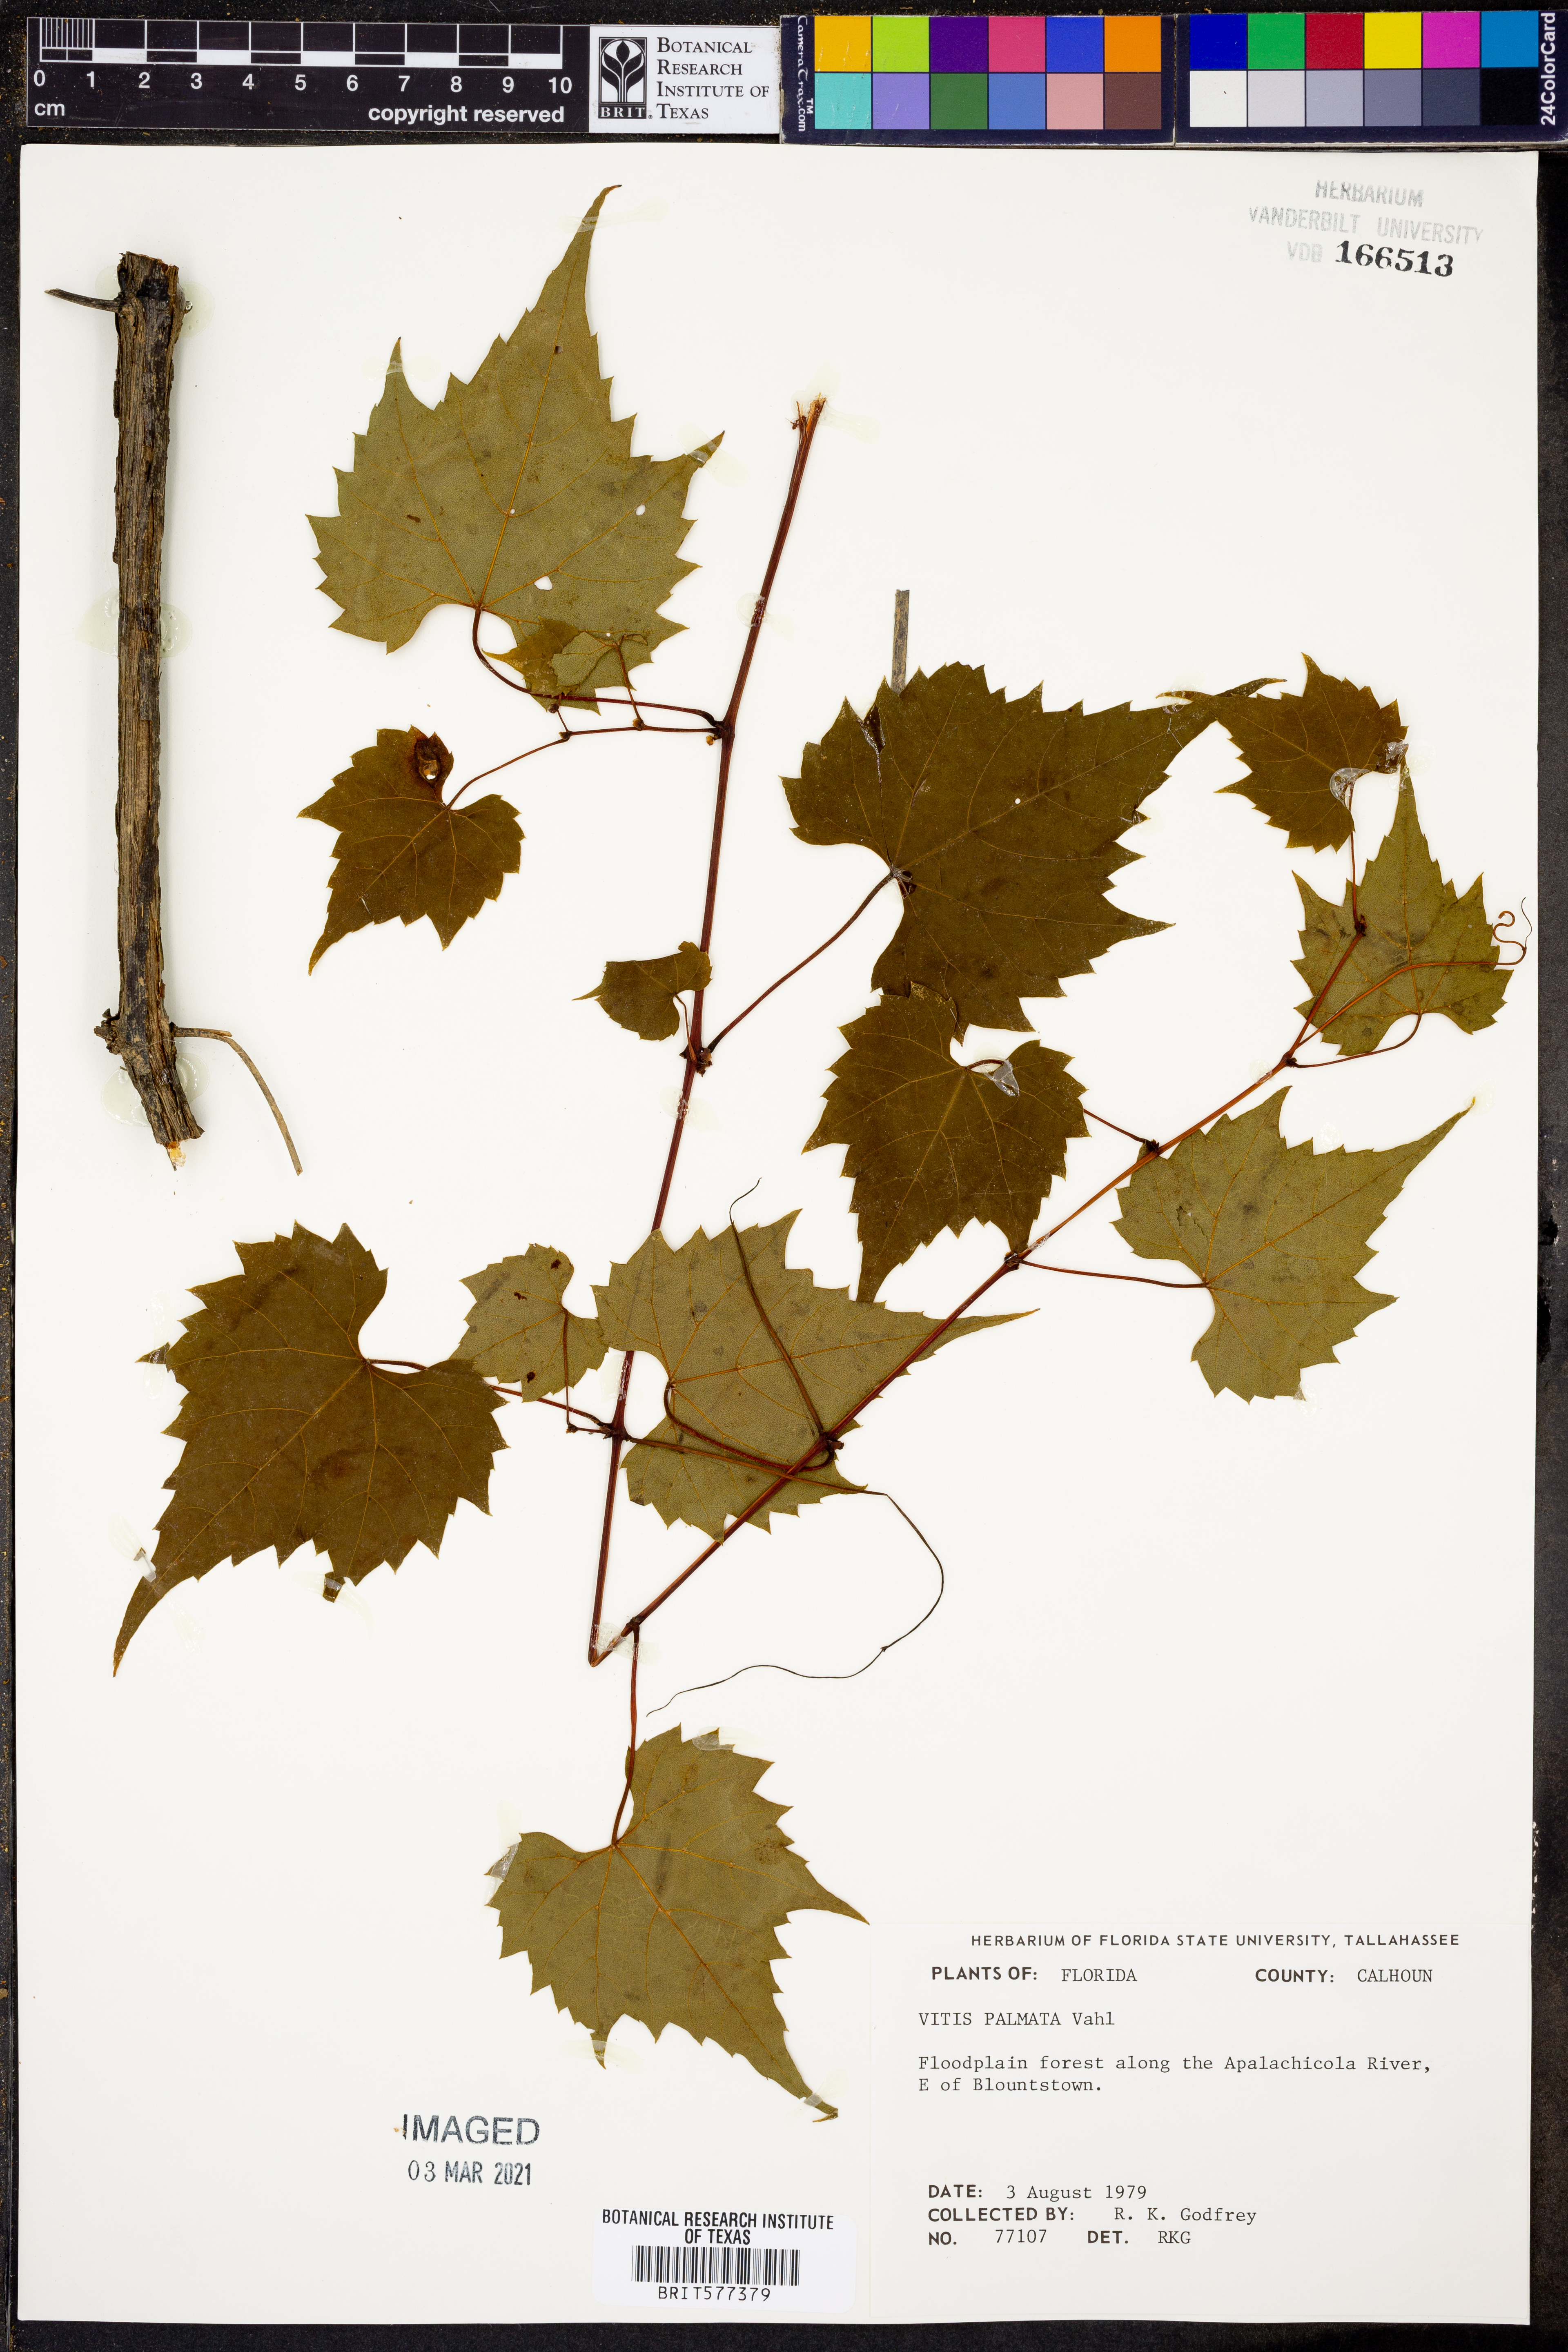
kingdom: Plantae
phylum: Tracheophyta
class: Magnoliopsida
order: Vitales
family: Vitaceae
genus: Vitis
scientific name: Vitis palmata
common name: Catbird grape
